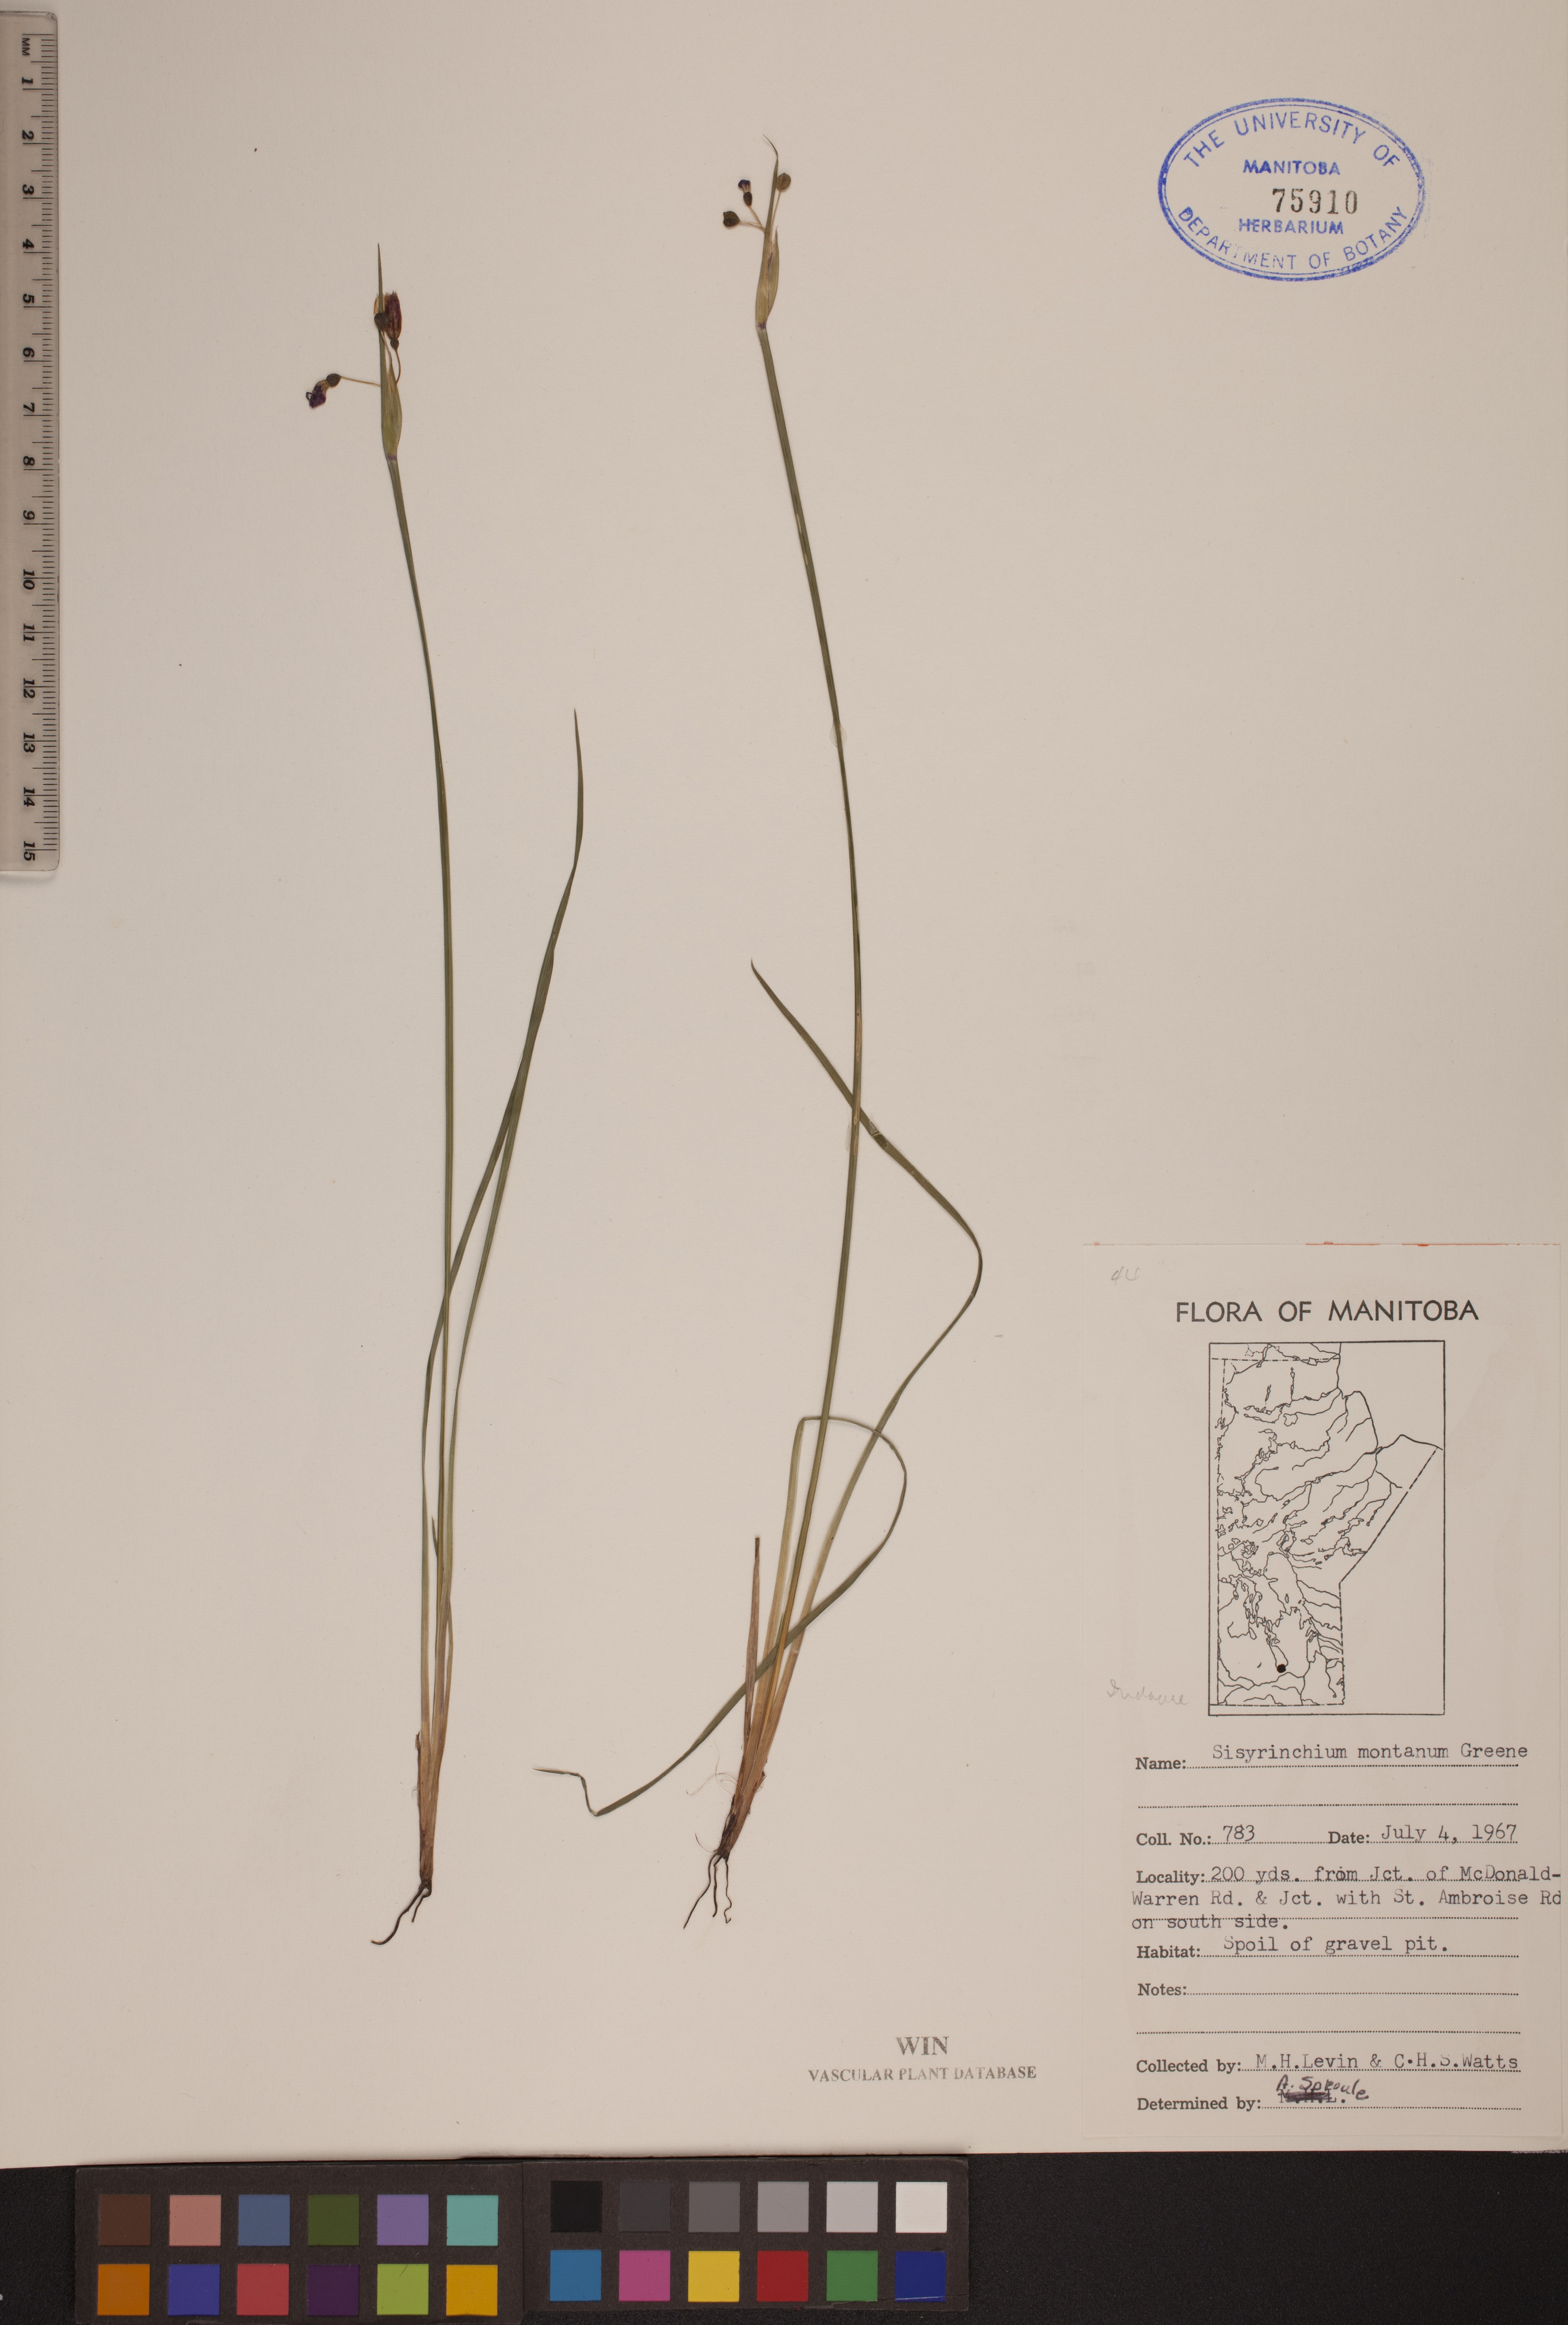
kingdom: Plantae
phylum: Tracheophyta
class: Liliopsida
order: Asparagales
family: Iridaceae
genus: Sisyrinchium
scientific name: Sisyrinchium montanum
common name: American blue-eyed-grass
